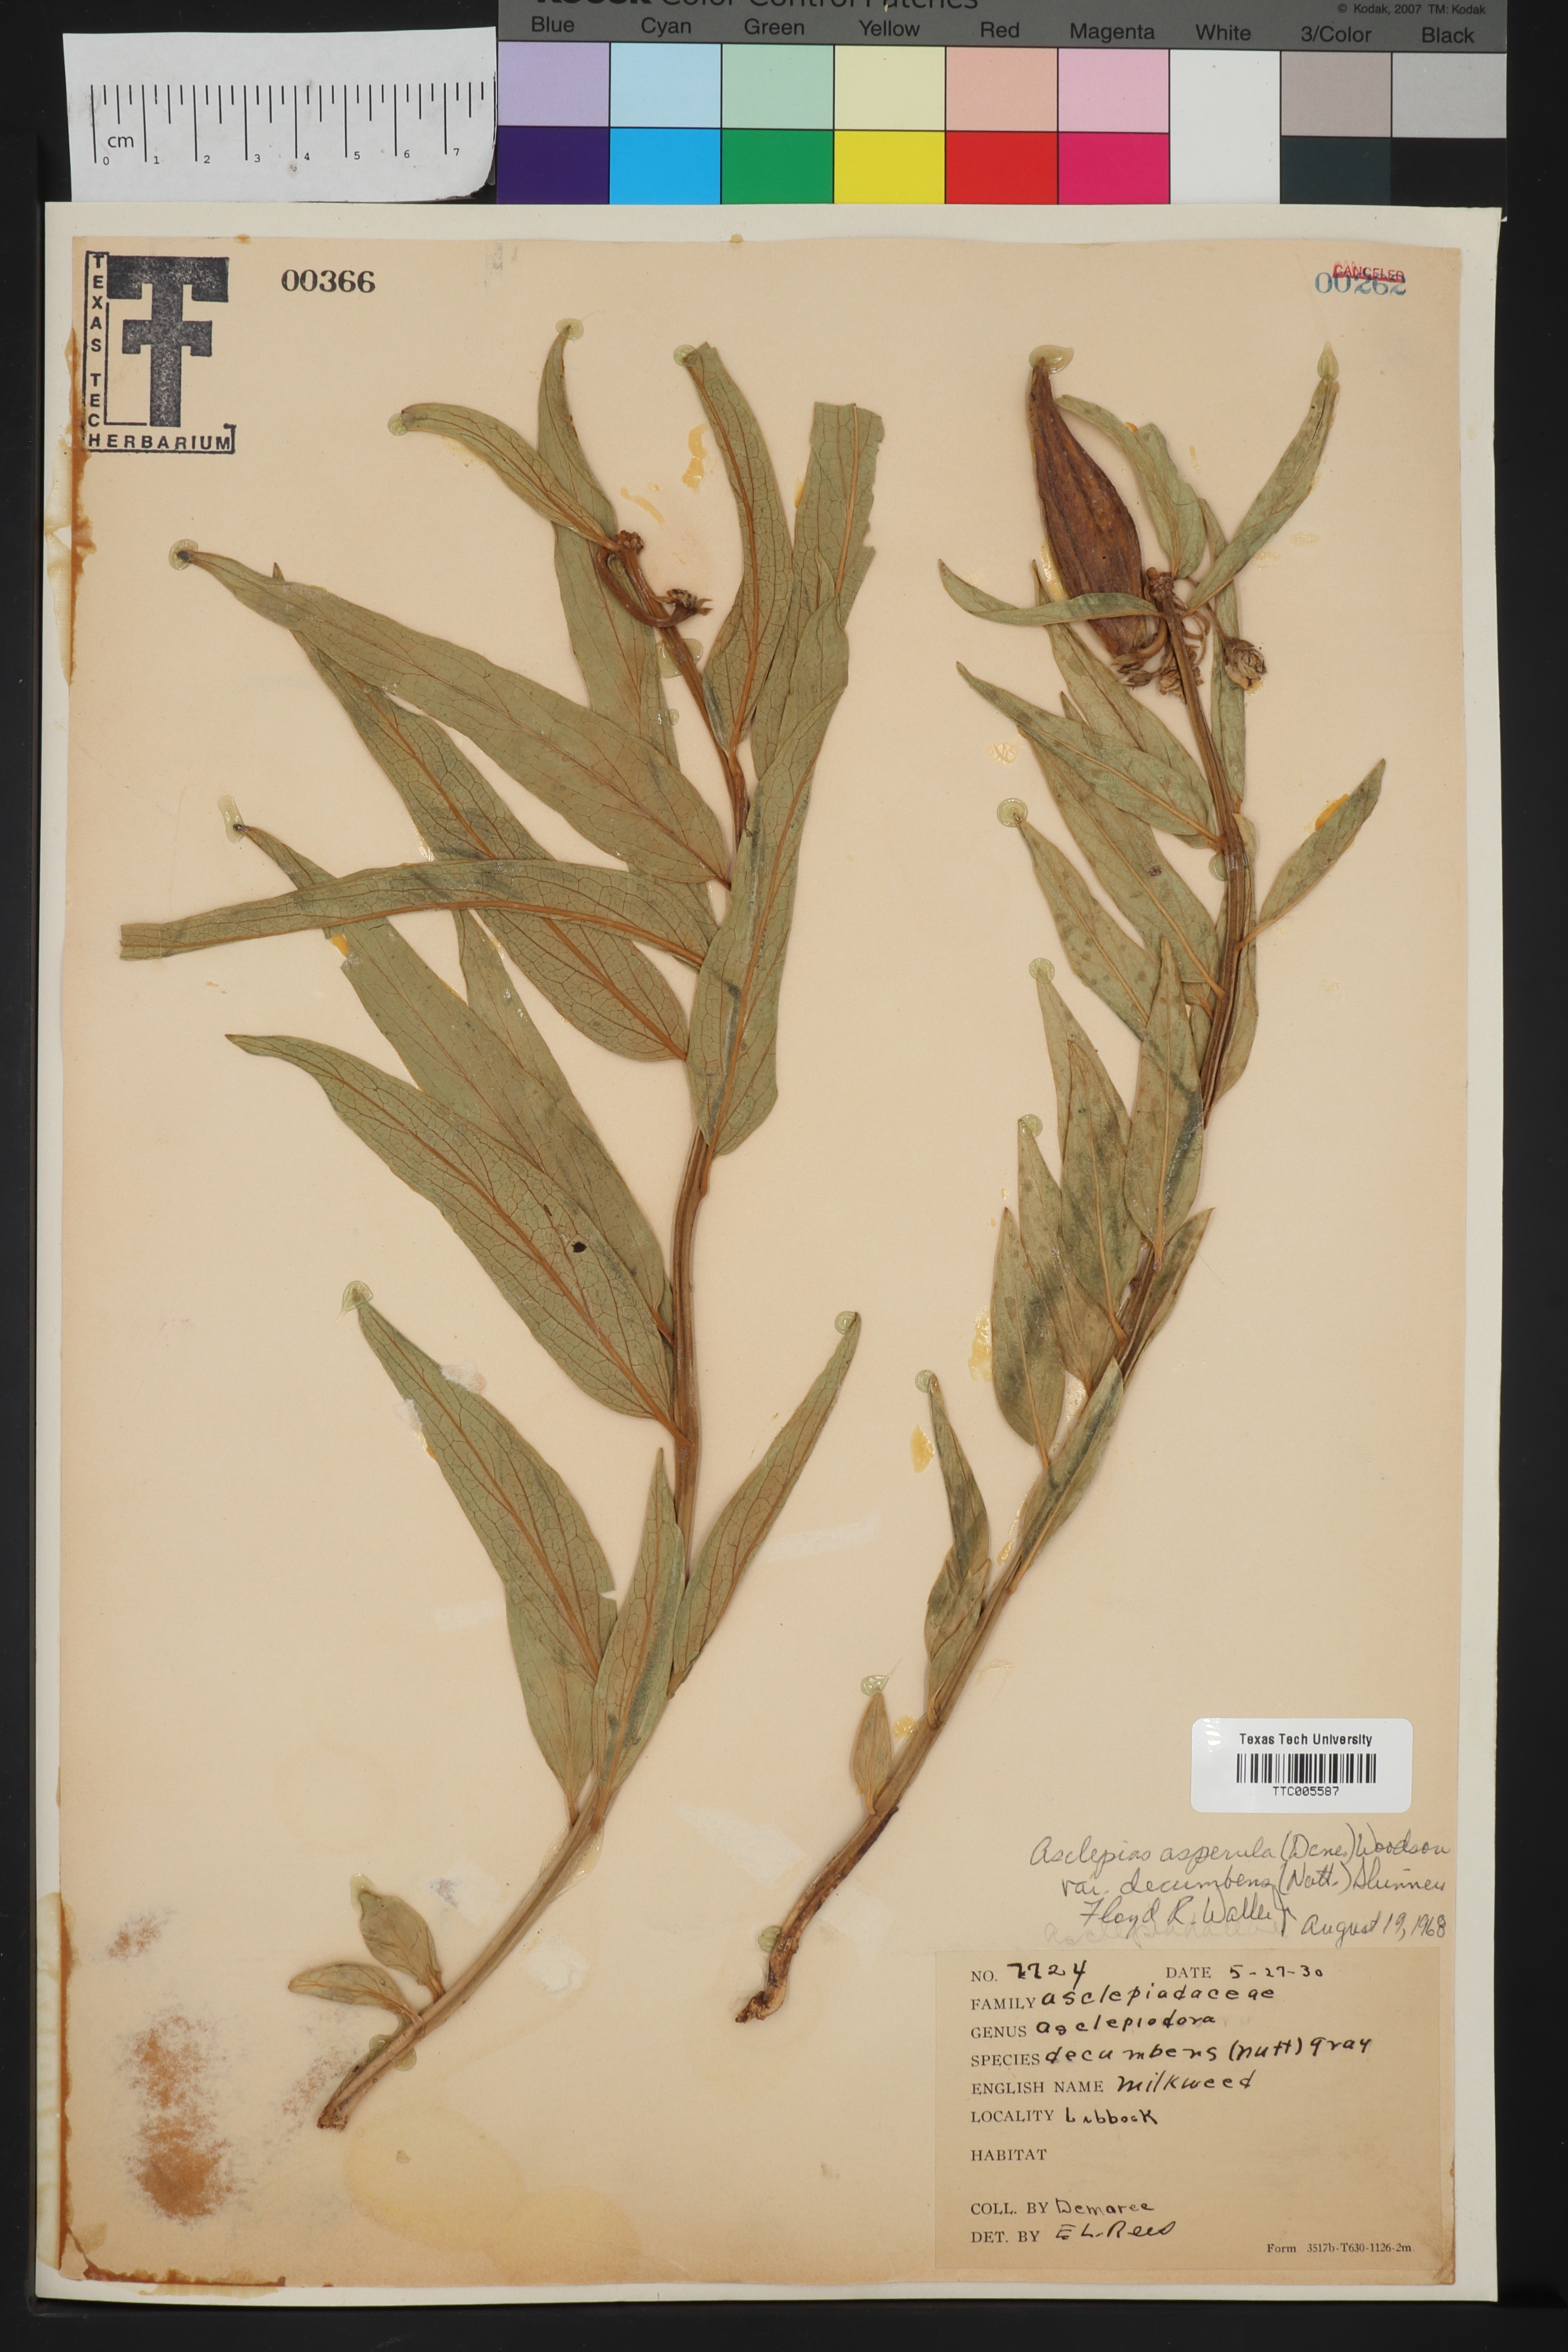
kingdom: Plantae
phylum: Tracheophyta
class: Magnoliopsida
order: Gentianales
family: Apocynaceae
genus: Asclepias
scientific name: Asclepias asperula
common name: Antelope horns
